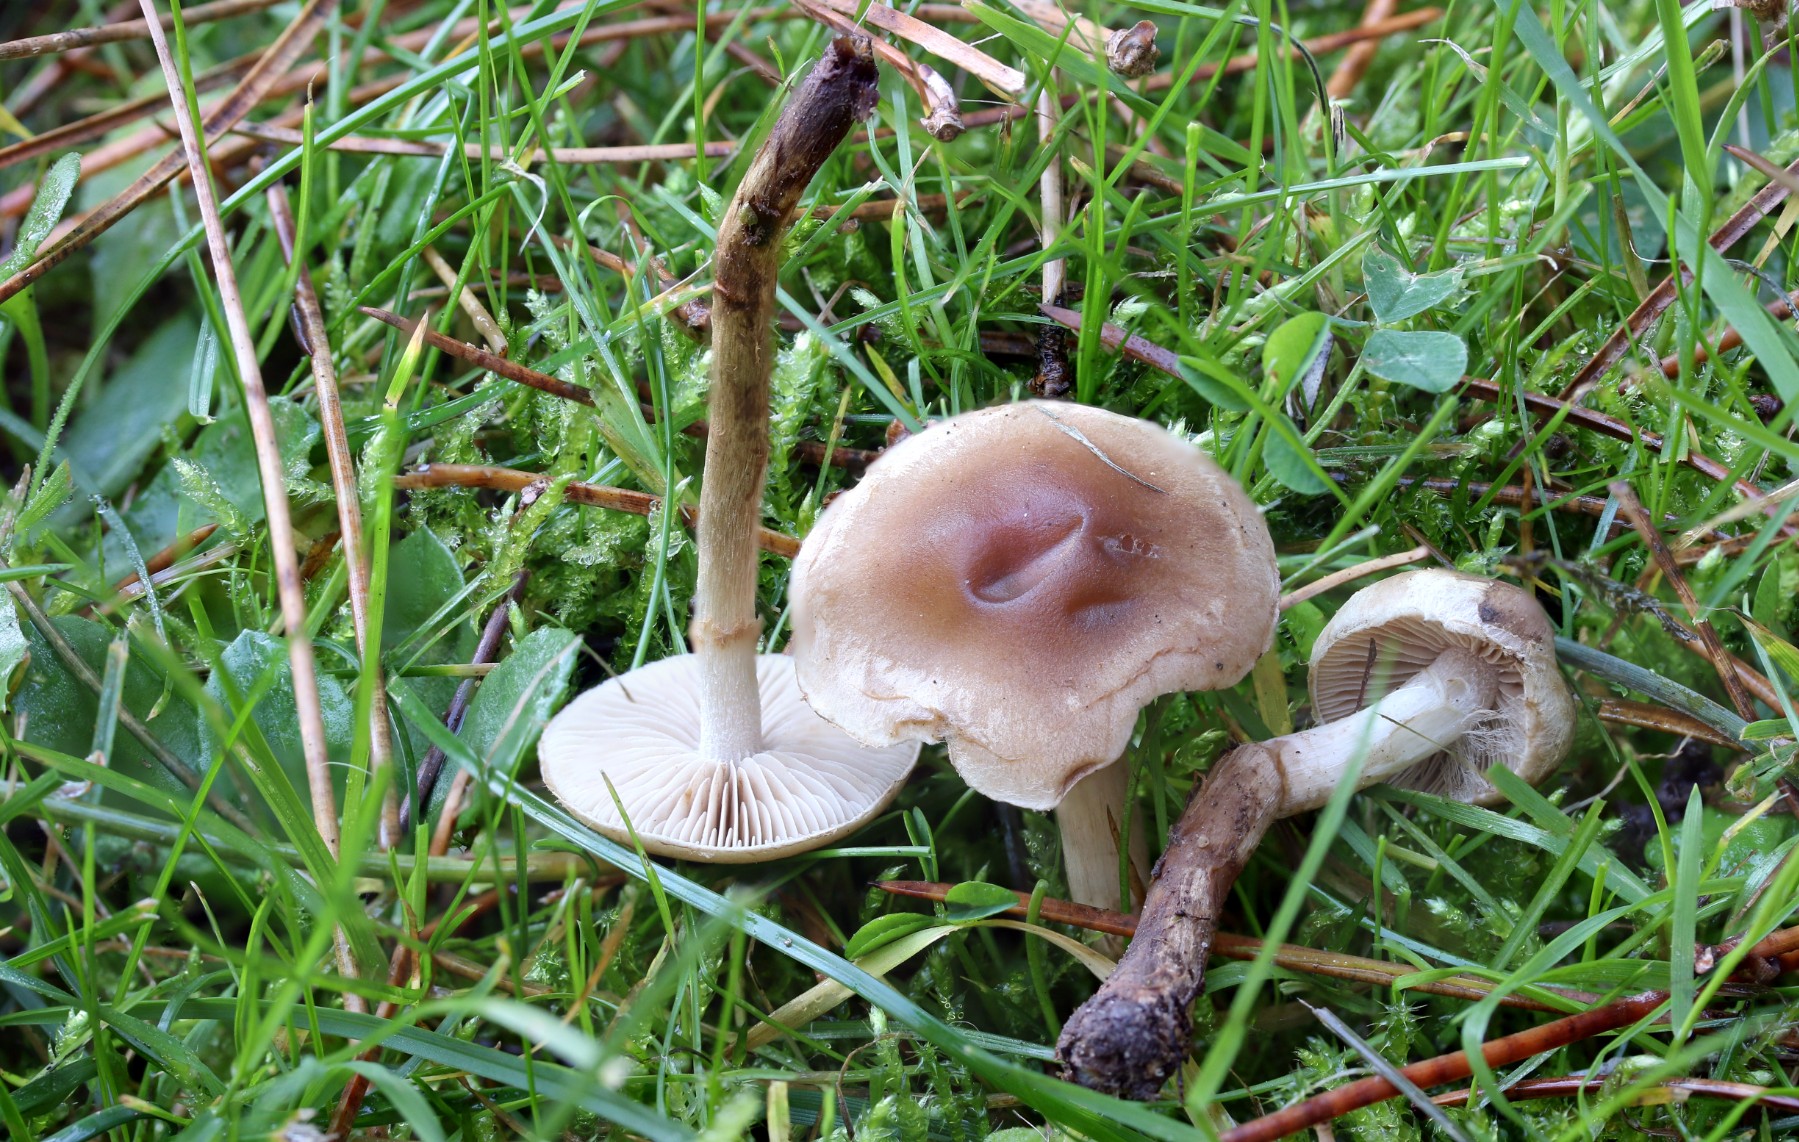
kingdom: Fungi
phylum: Basidiomycota
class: Agaricomycetes
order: Agaricales
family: Hymenogastraceae
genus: Hebeloma
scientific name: Hebeloma mesophaeum
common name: lerbrun tåreblad
